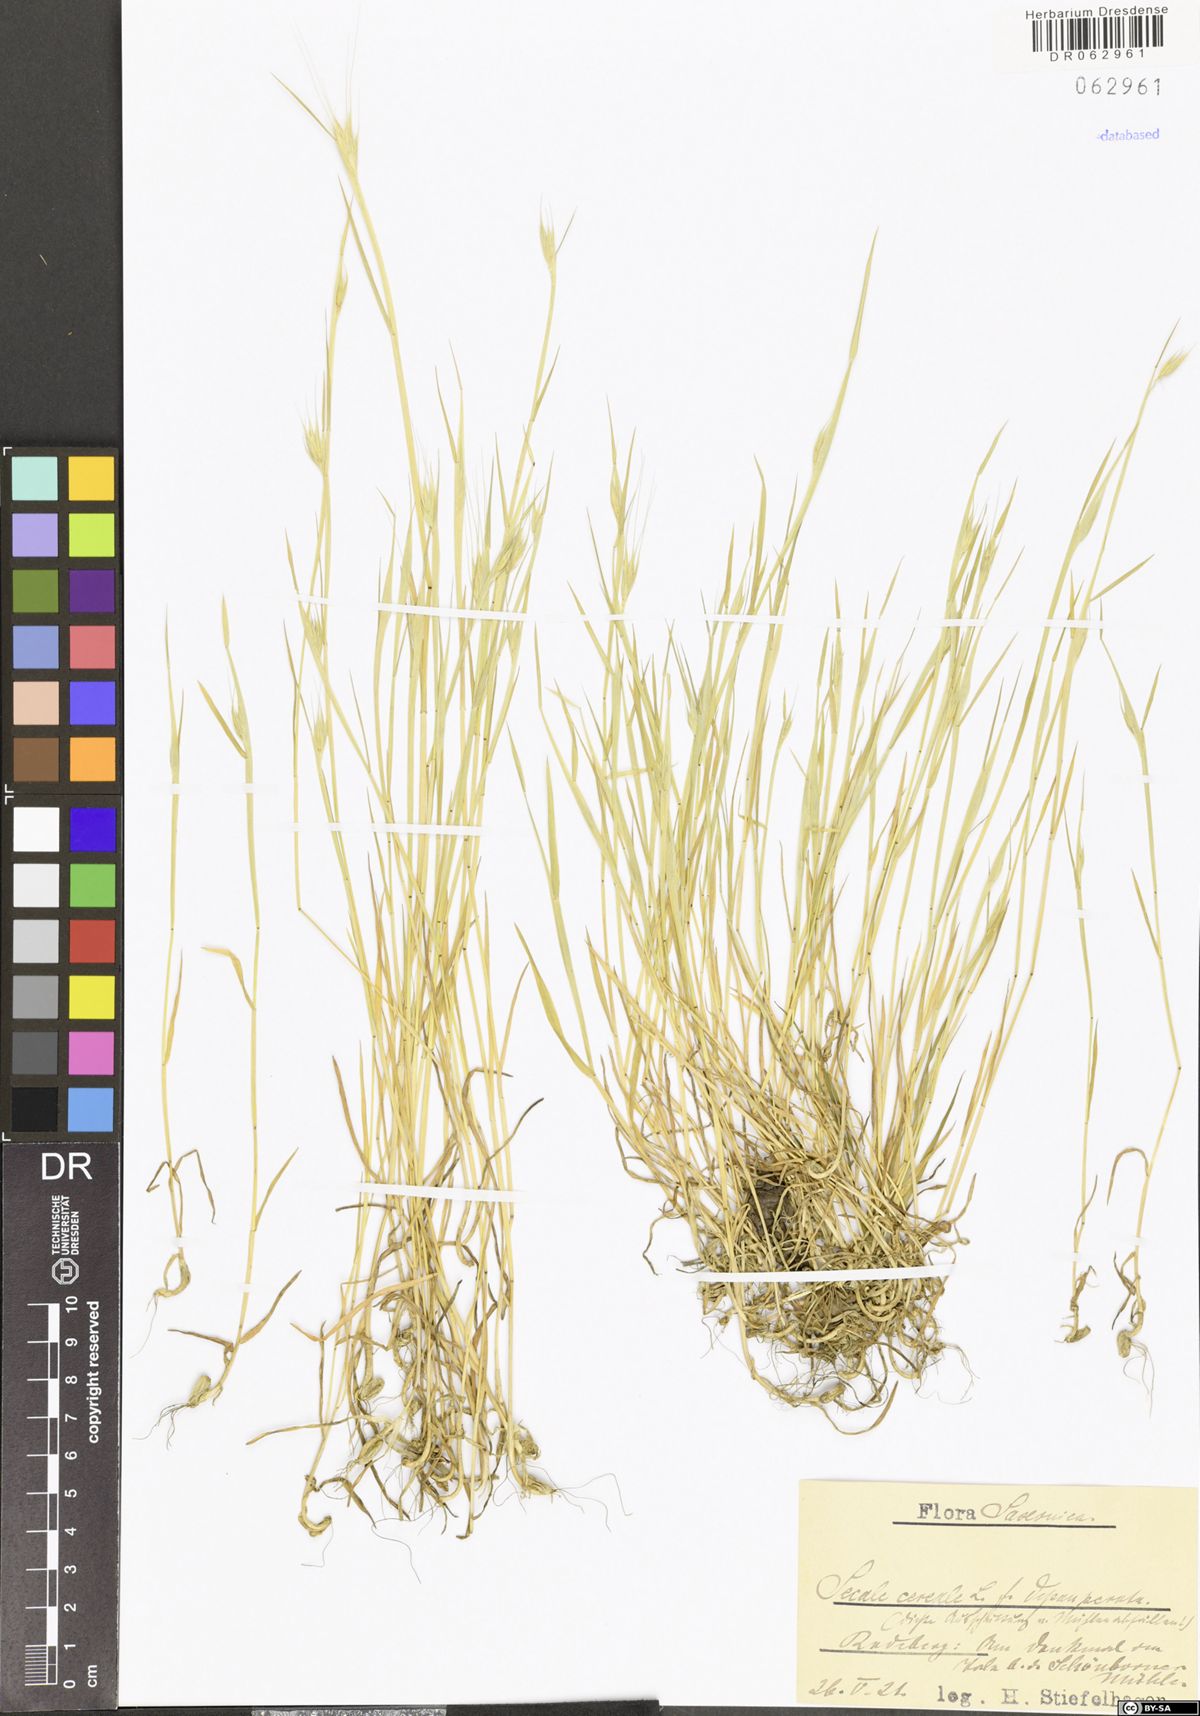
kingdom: Plantae
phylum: Tracheophyta
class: Liliopsida
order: Poales
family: Poaceae
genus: Secale
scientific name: Secale cereale
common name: Rye
